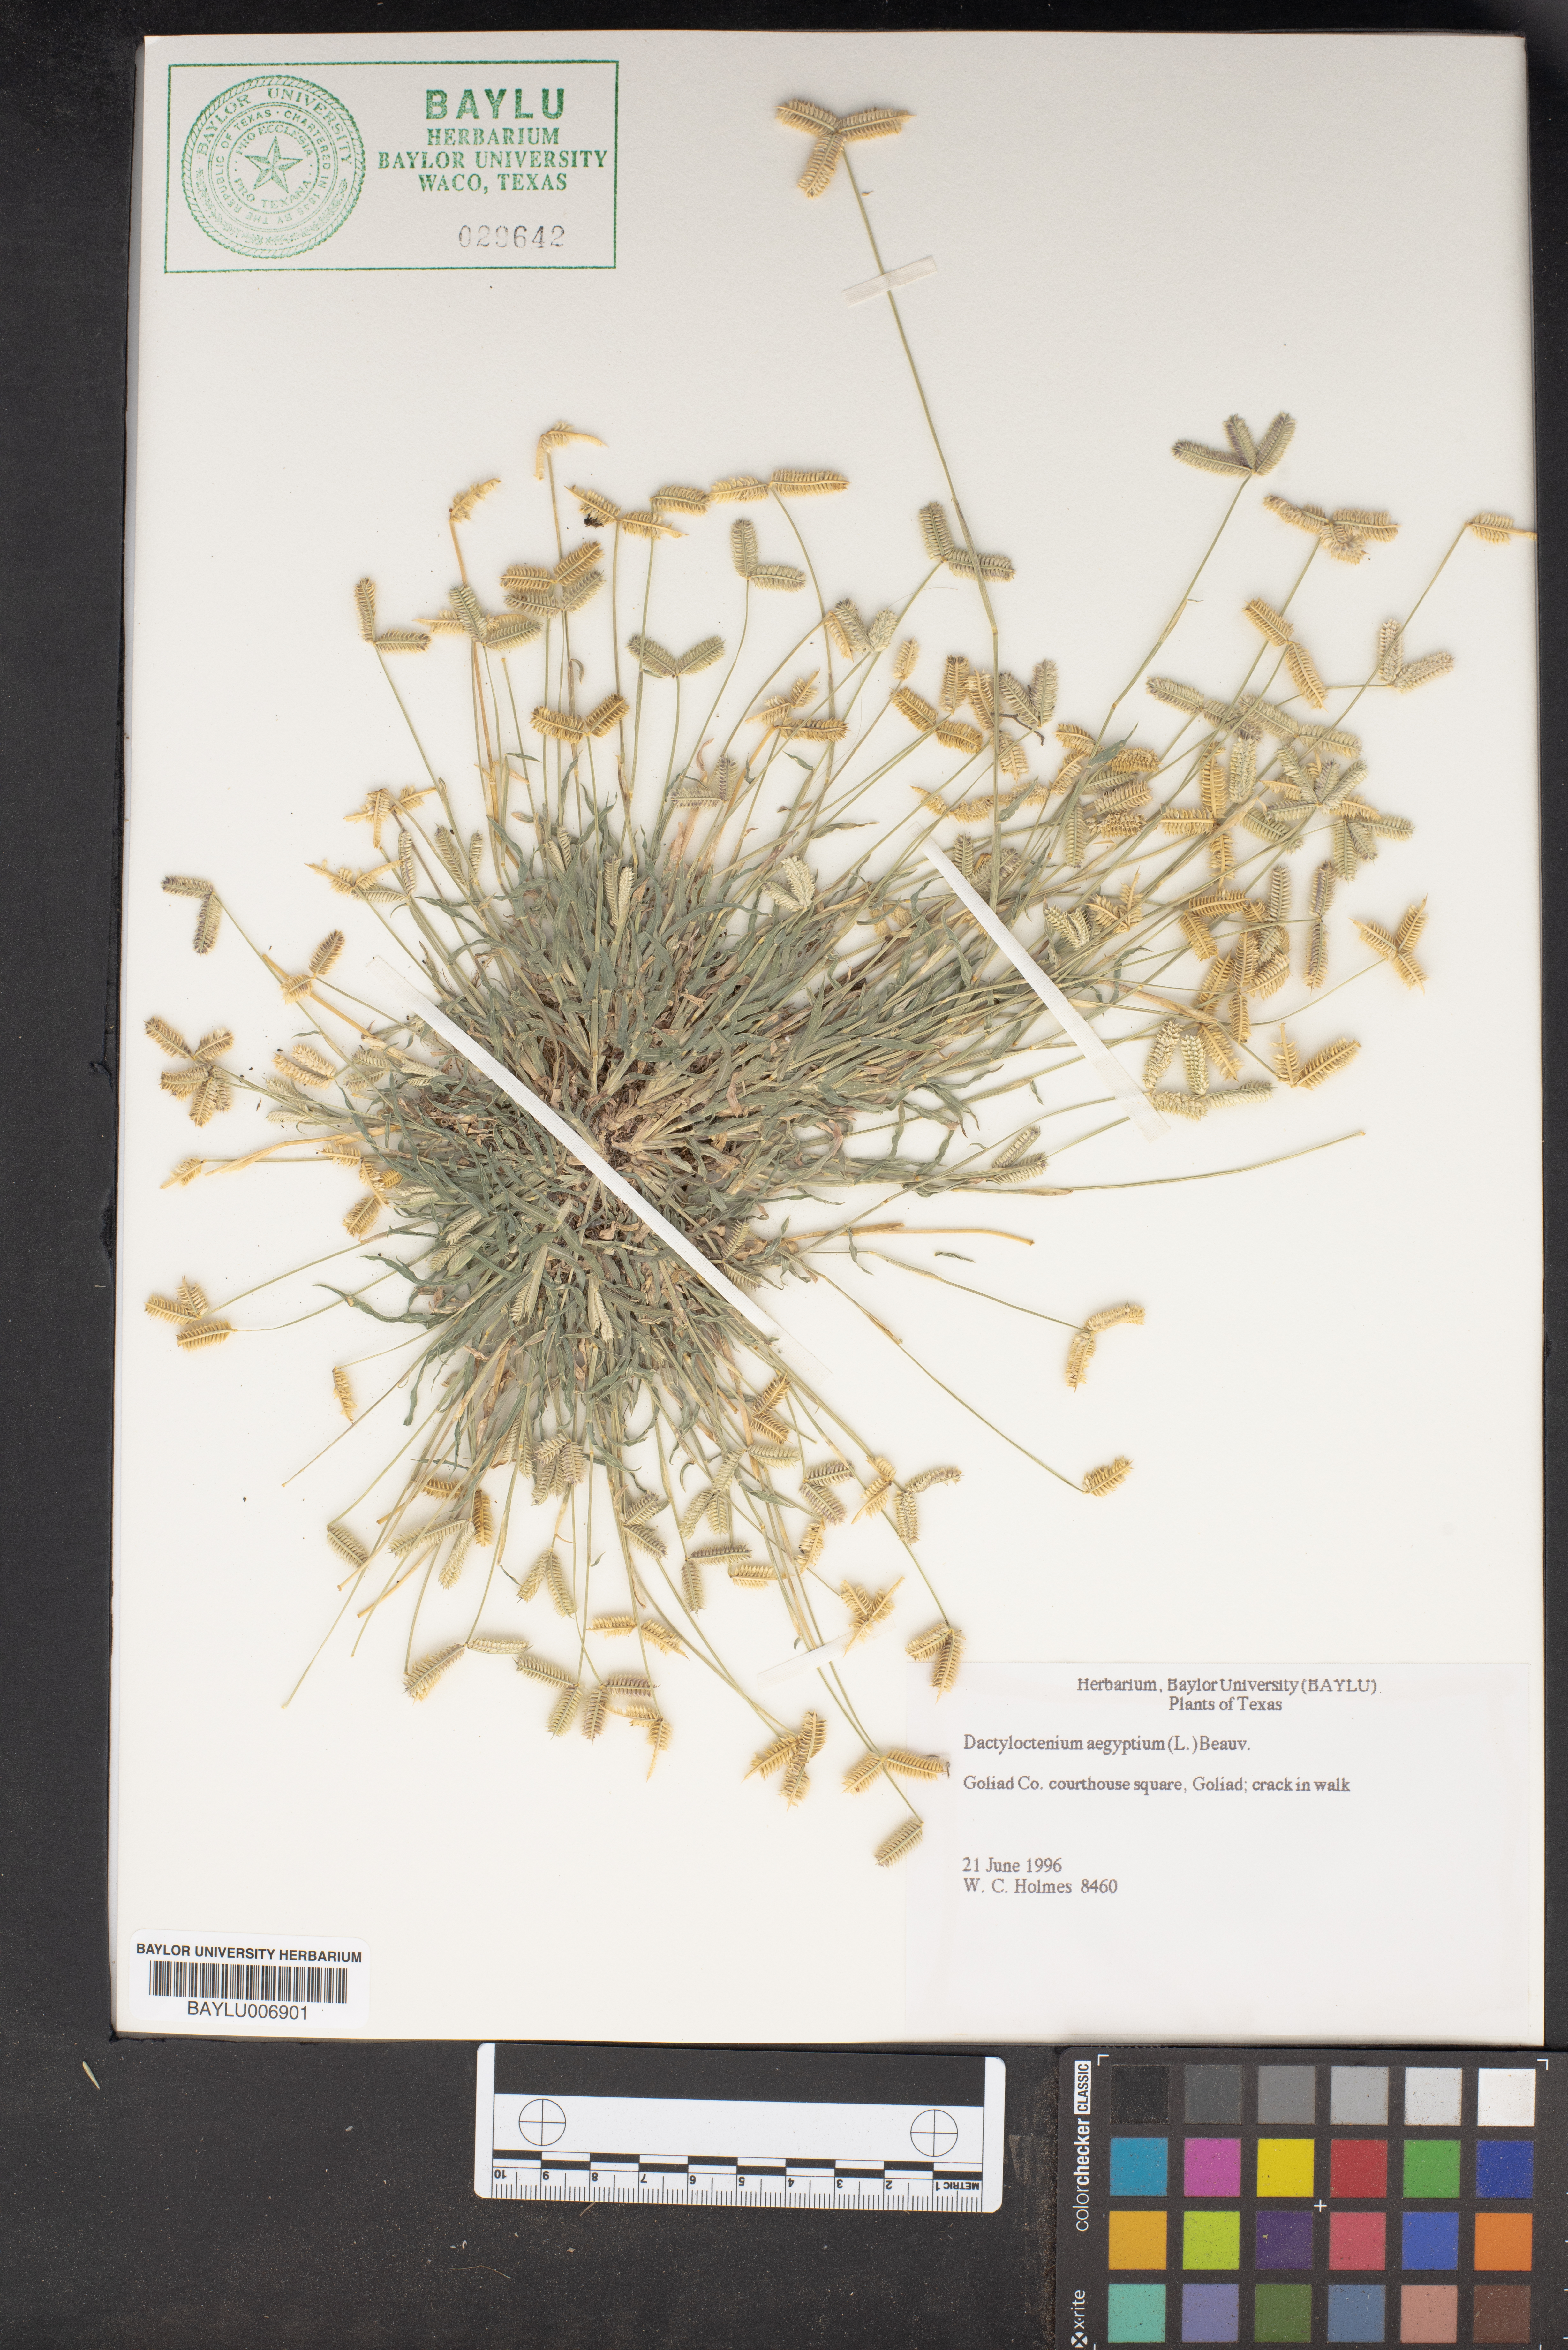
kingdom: Plantae
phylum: Tracheophyta
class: Liliopsida
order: Poales
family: Poaceae
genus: Dactyloctenium
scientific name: Dactyloctenium aegyptium
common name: Egyptian grass
